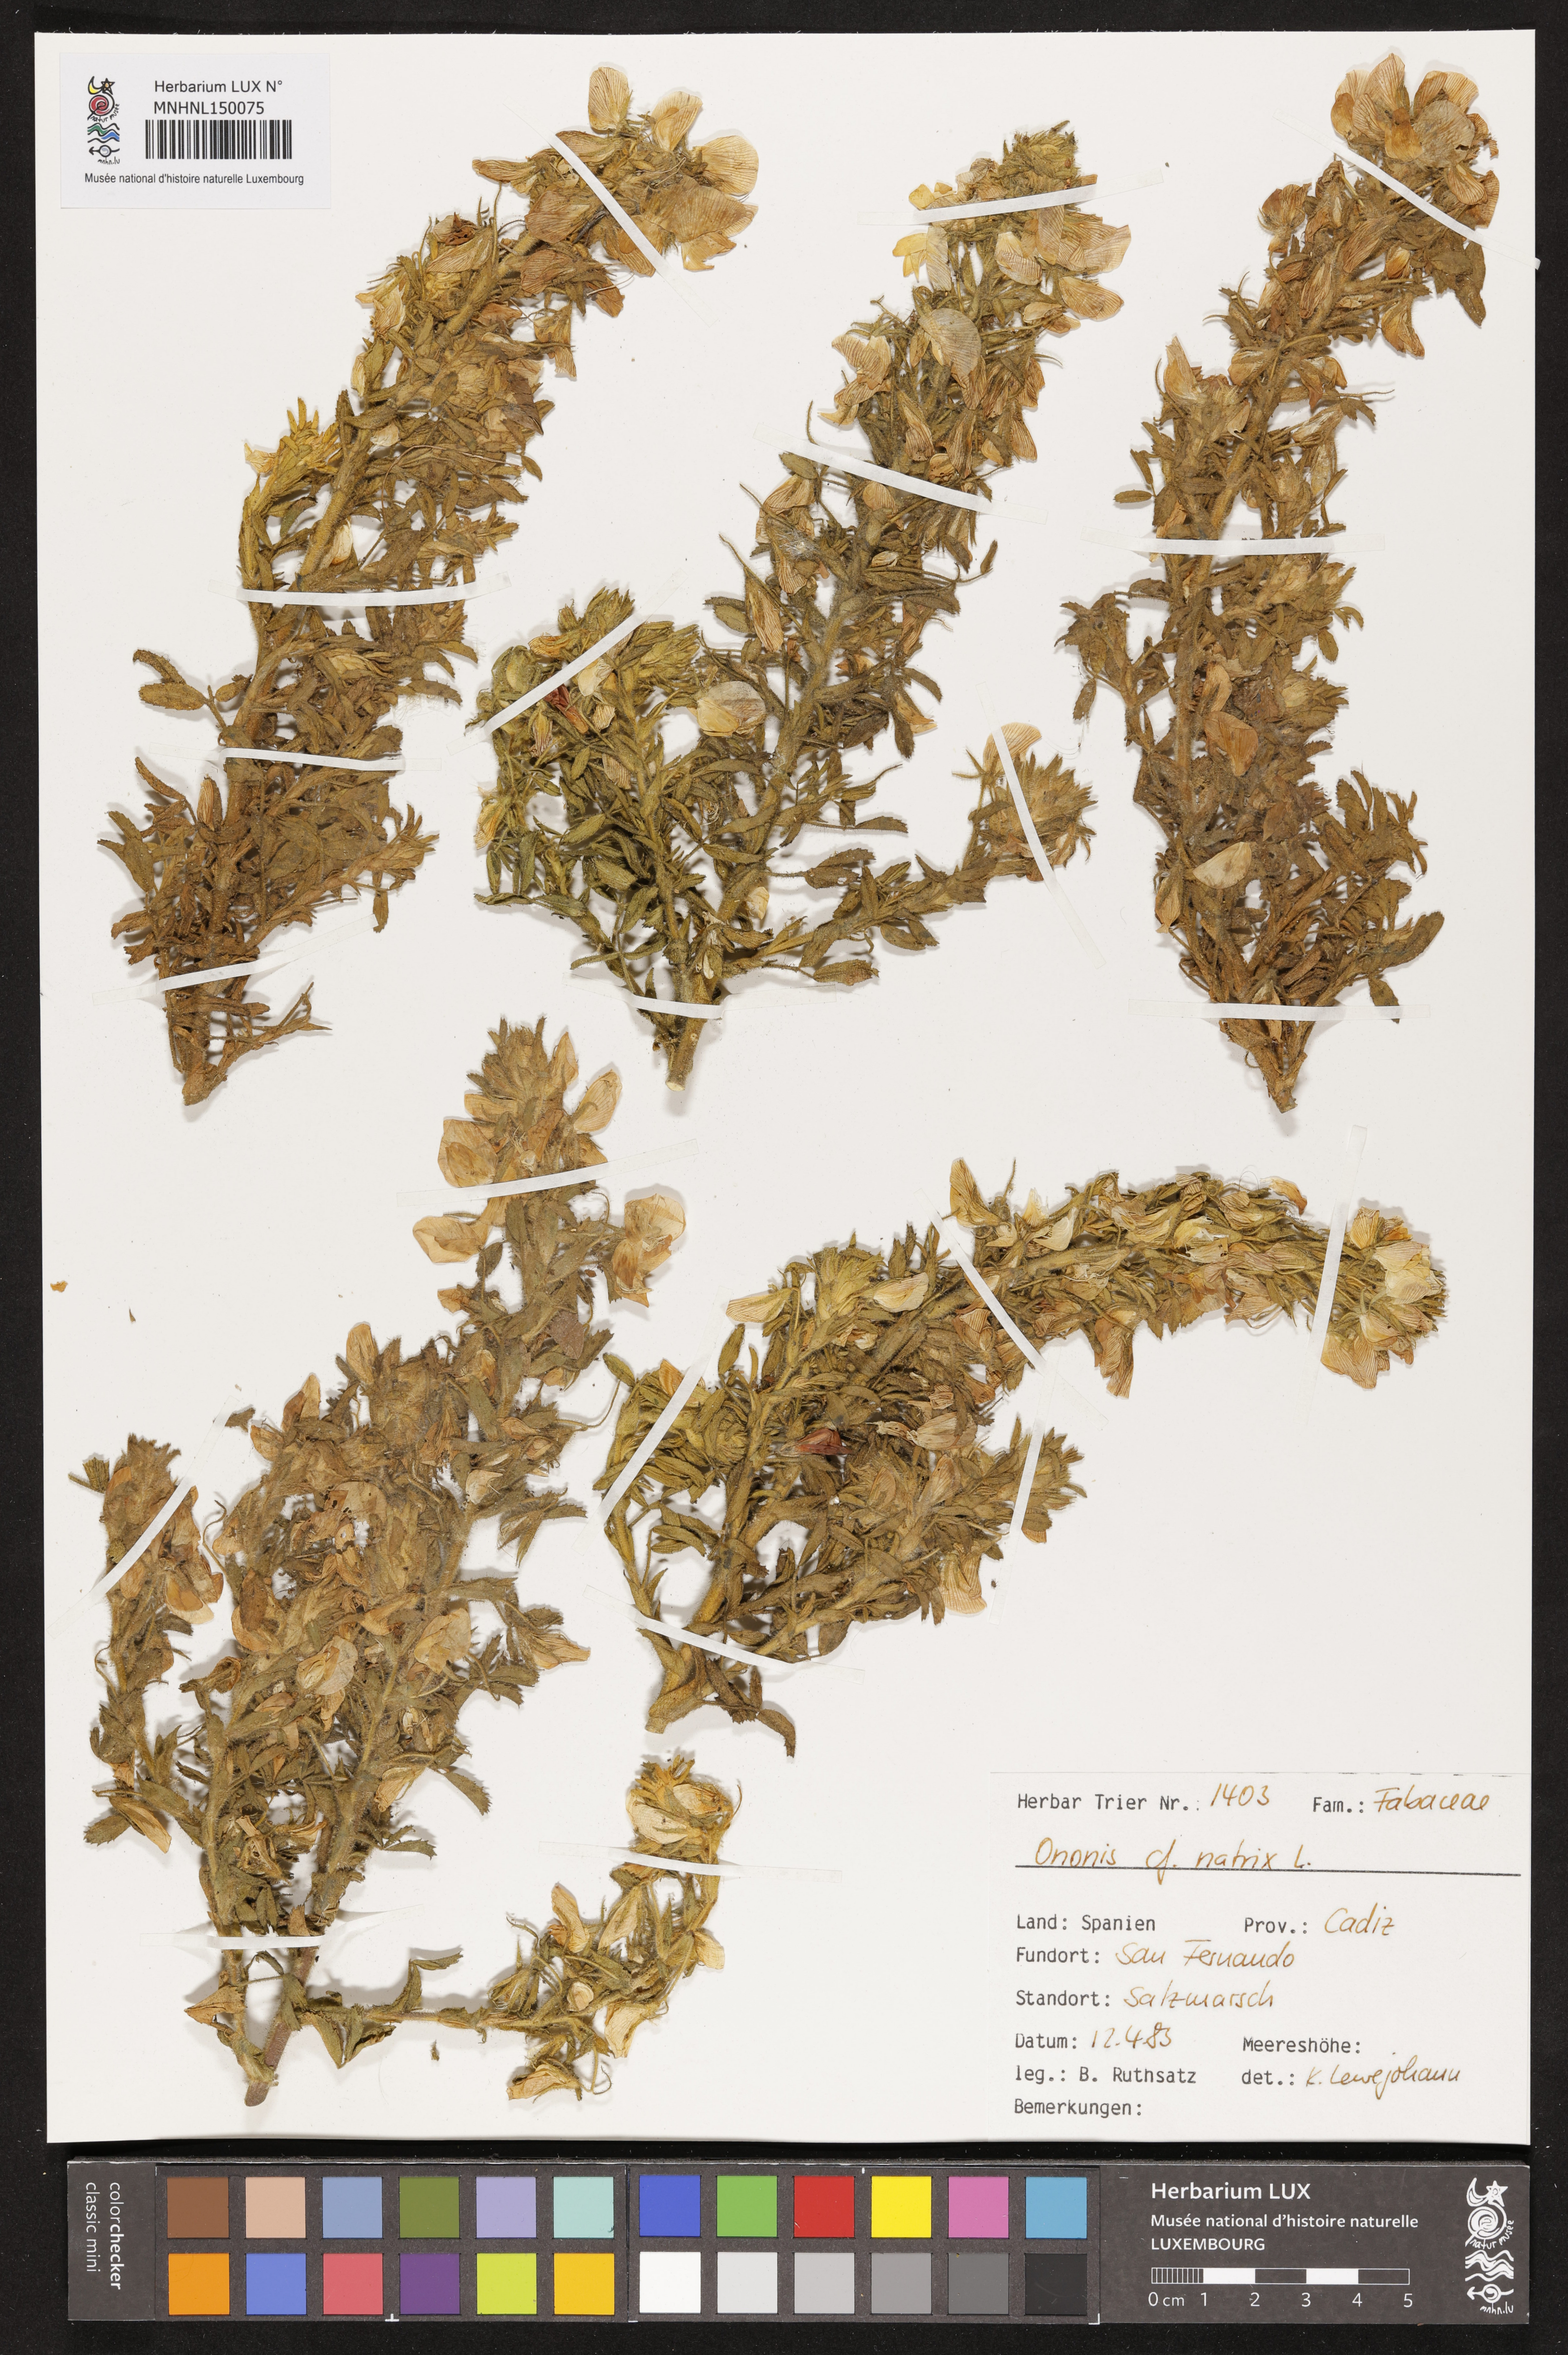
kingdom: Plantae
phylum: Tracheophyta
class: Magnoliopsida
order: Fabales
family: Fabaceae
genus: Ononis
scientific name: Ononis natrix
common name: Yellow restharrow
